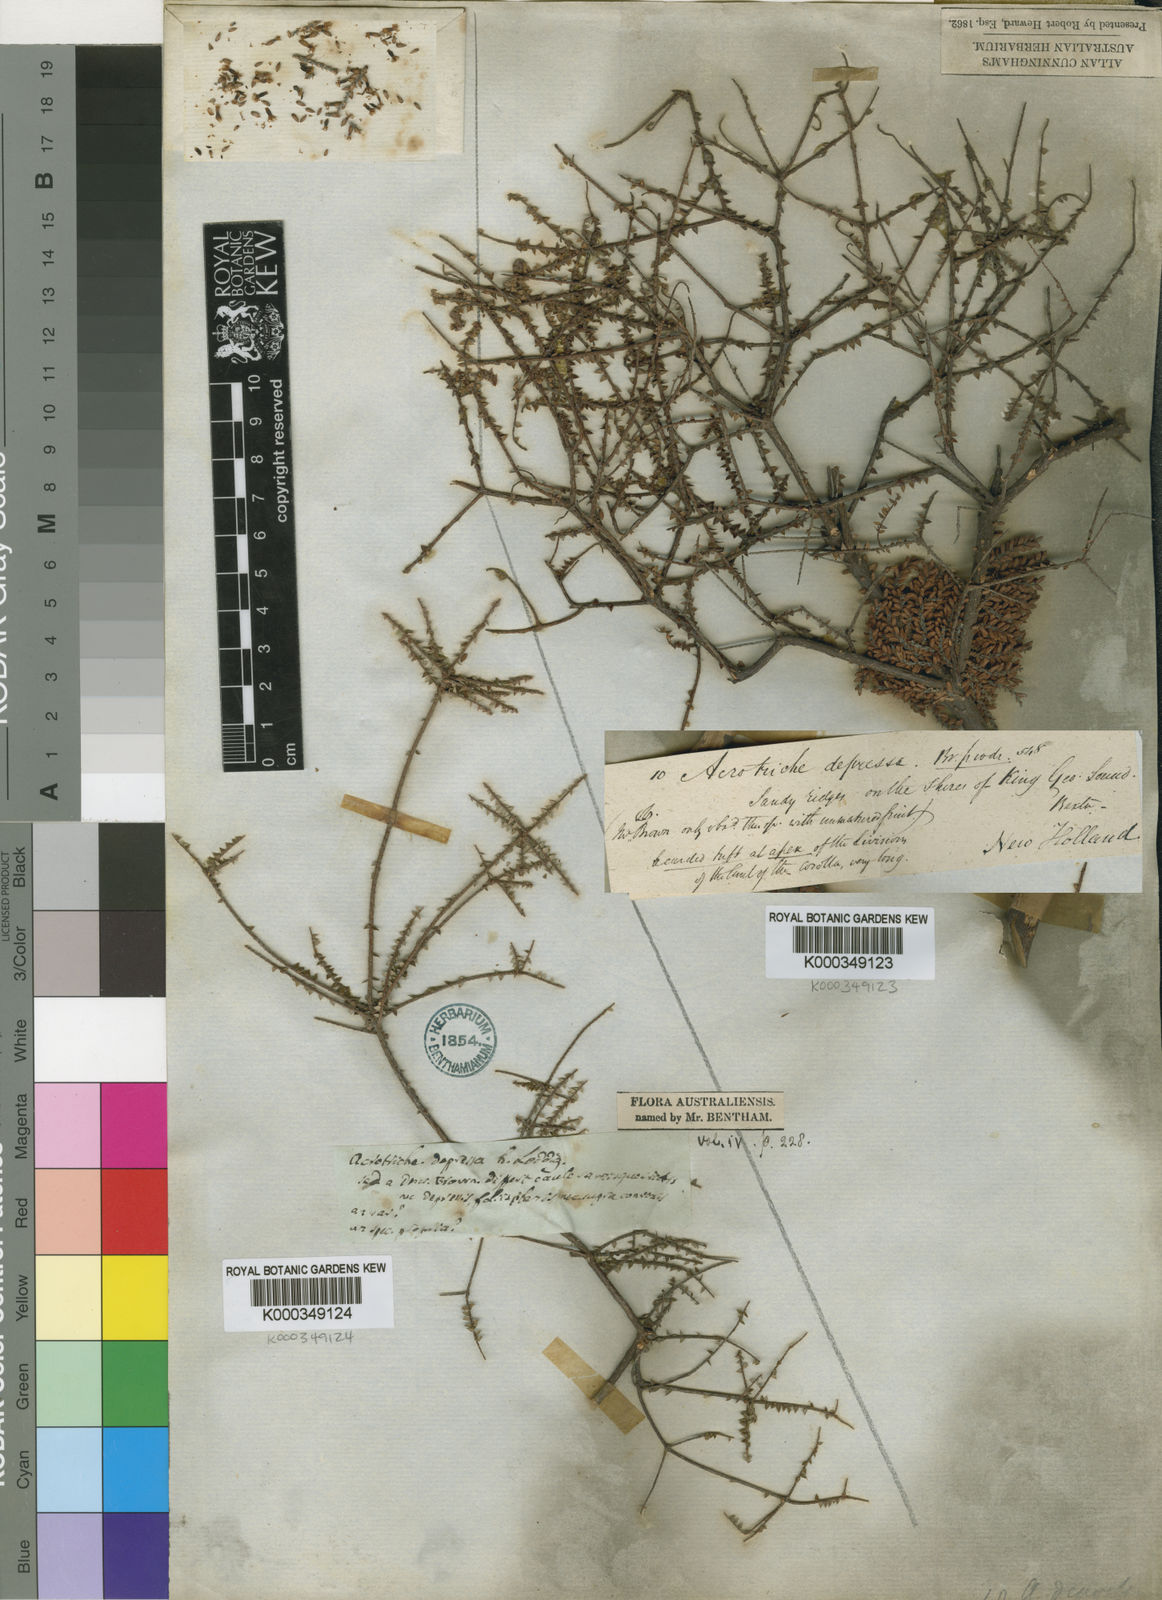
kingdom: Plantae
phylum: Tracheophyta
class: Magnoliopsida
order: Ericales
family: Ericaceae
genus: Acrotriche
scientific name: Acrotriche depressa
